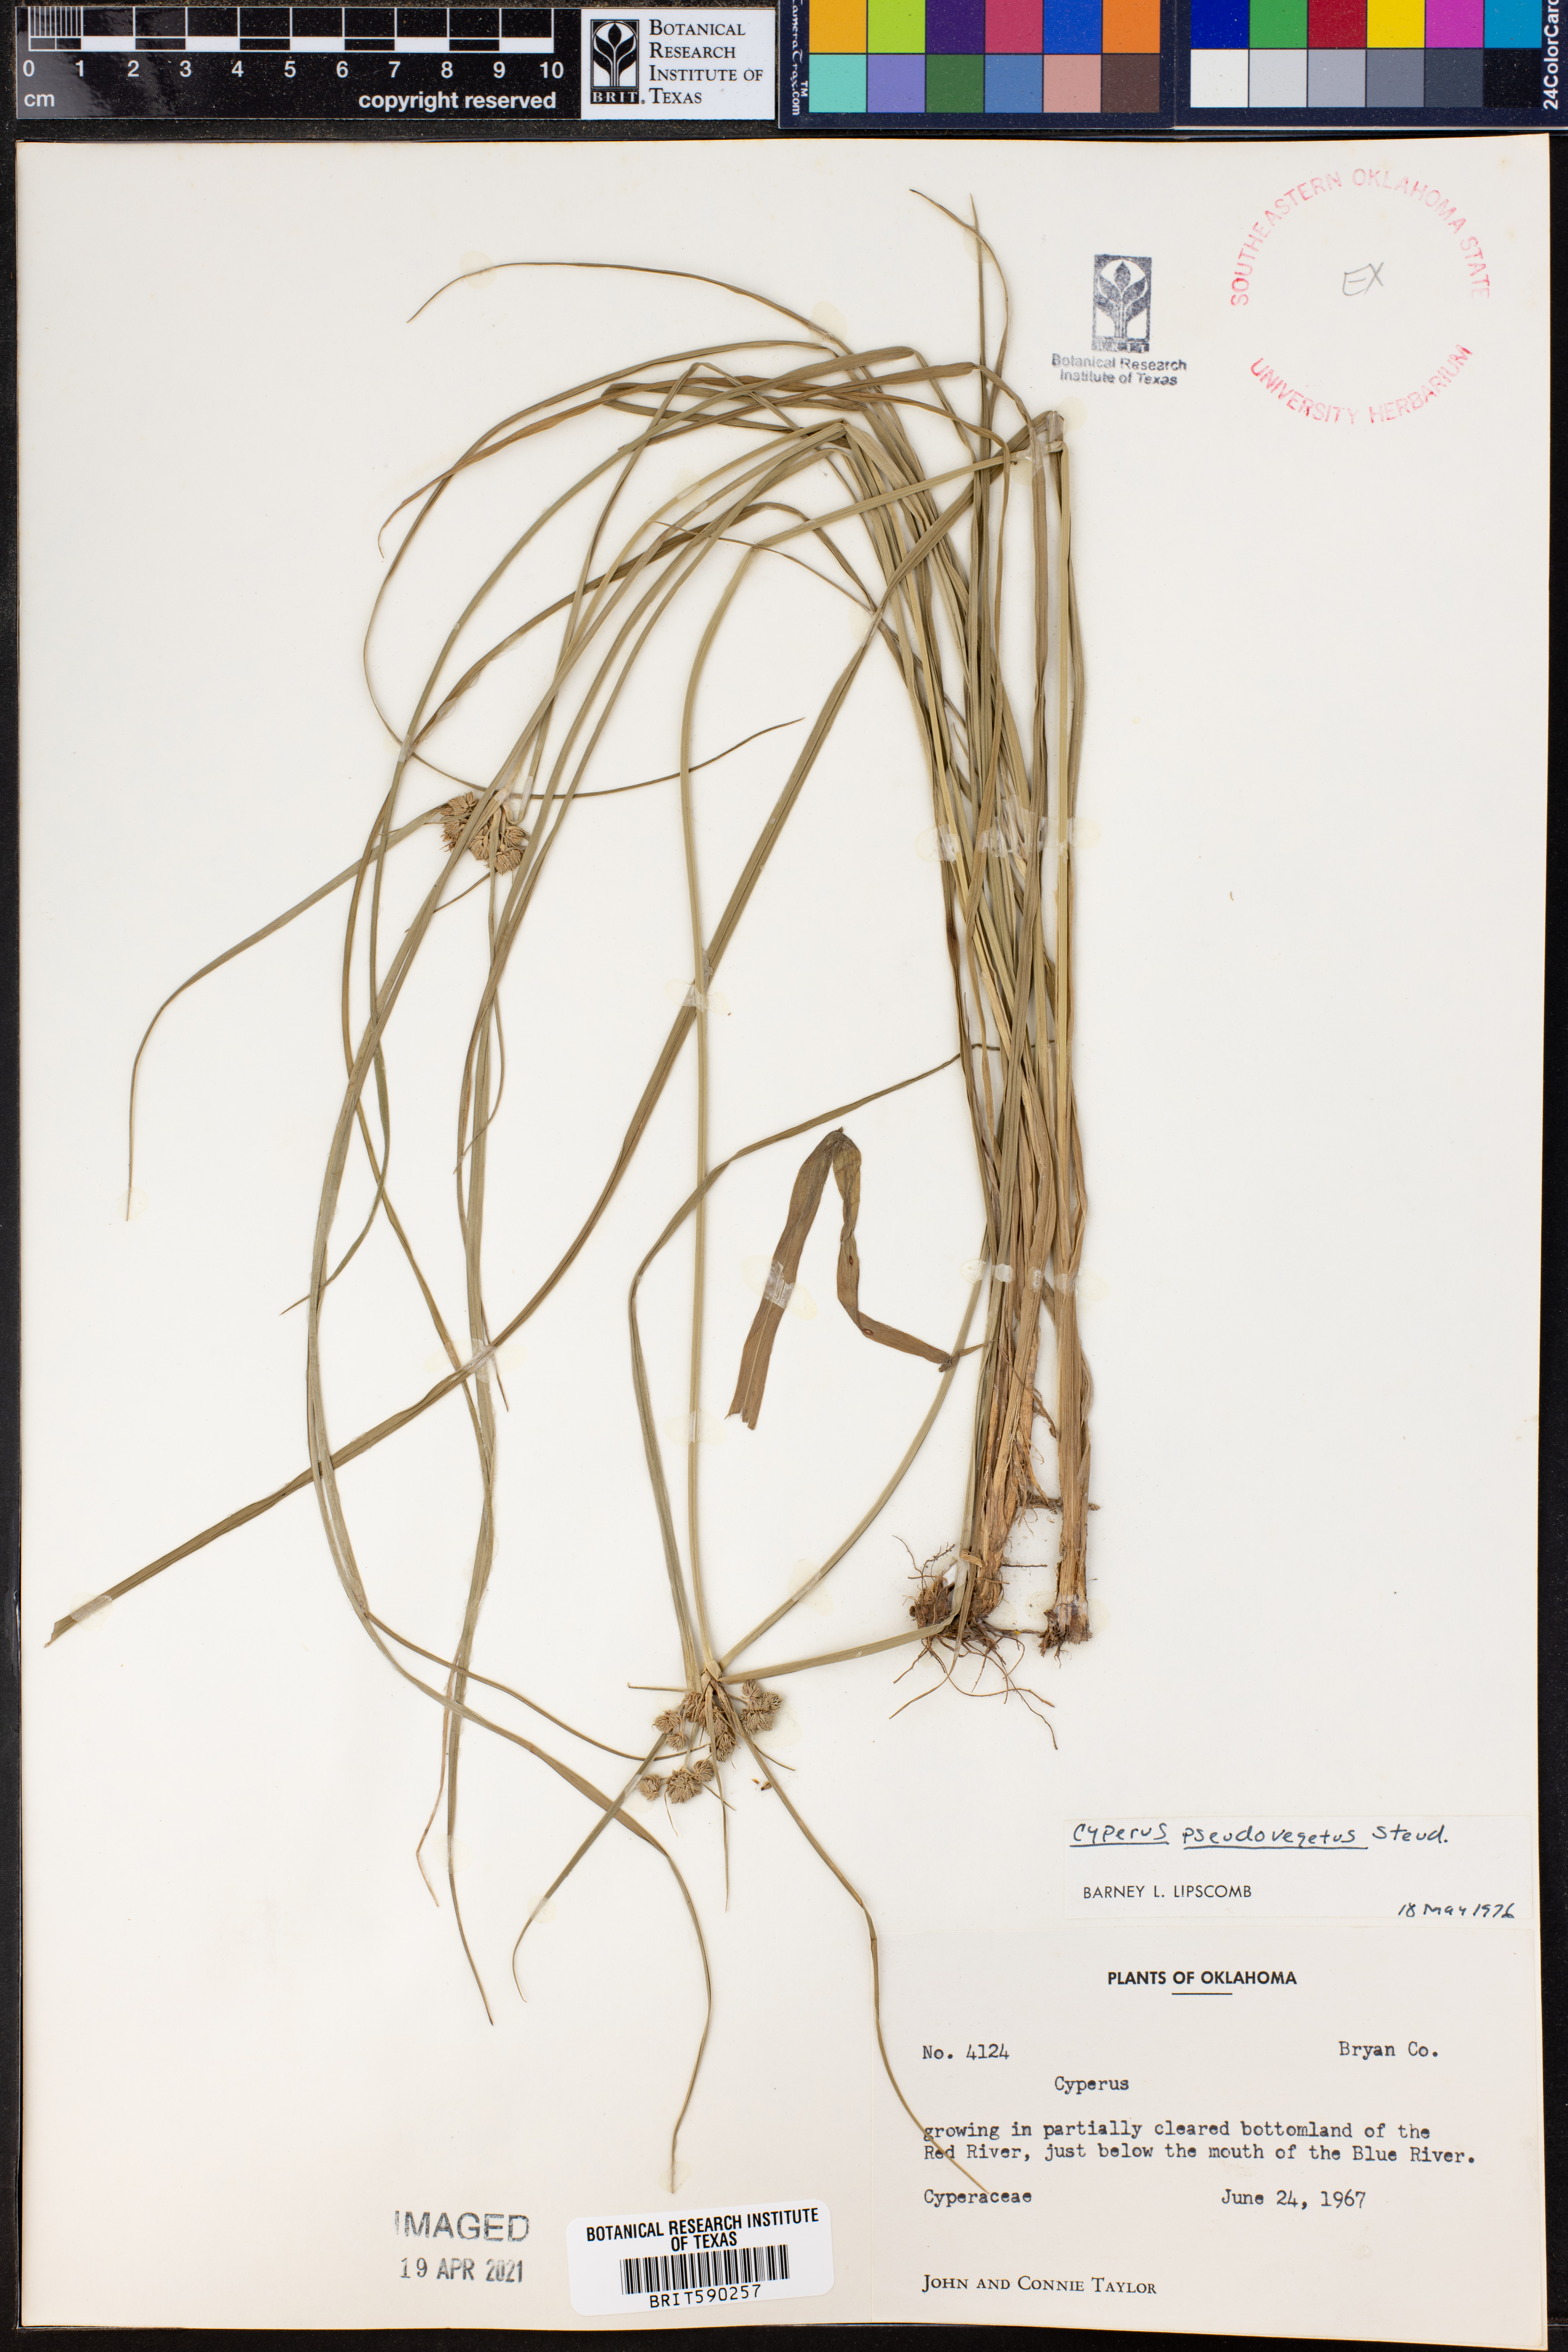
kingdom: Plantae
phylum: Tracheophyta
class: Liliopsida
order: Poales
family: Cyperaceae
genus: Cyperus
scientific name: Cyperus pseudovegetus
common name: Marsh flat sedge
